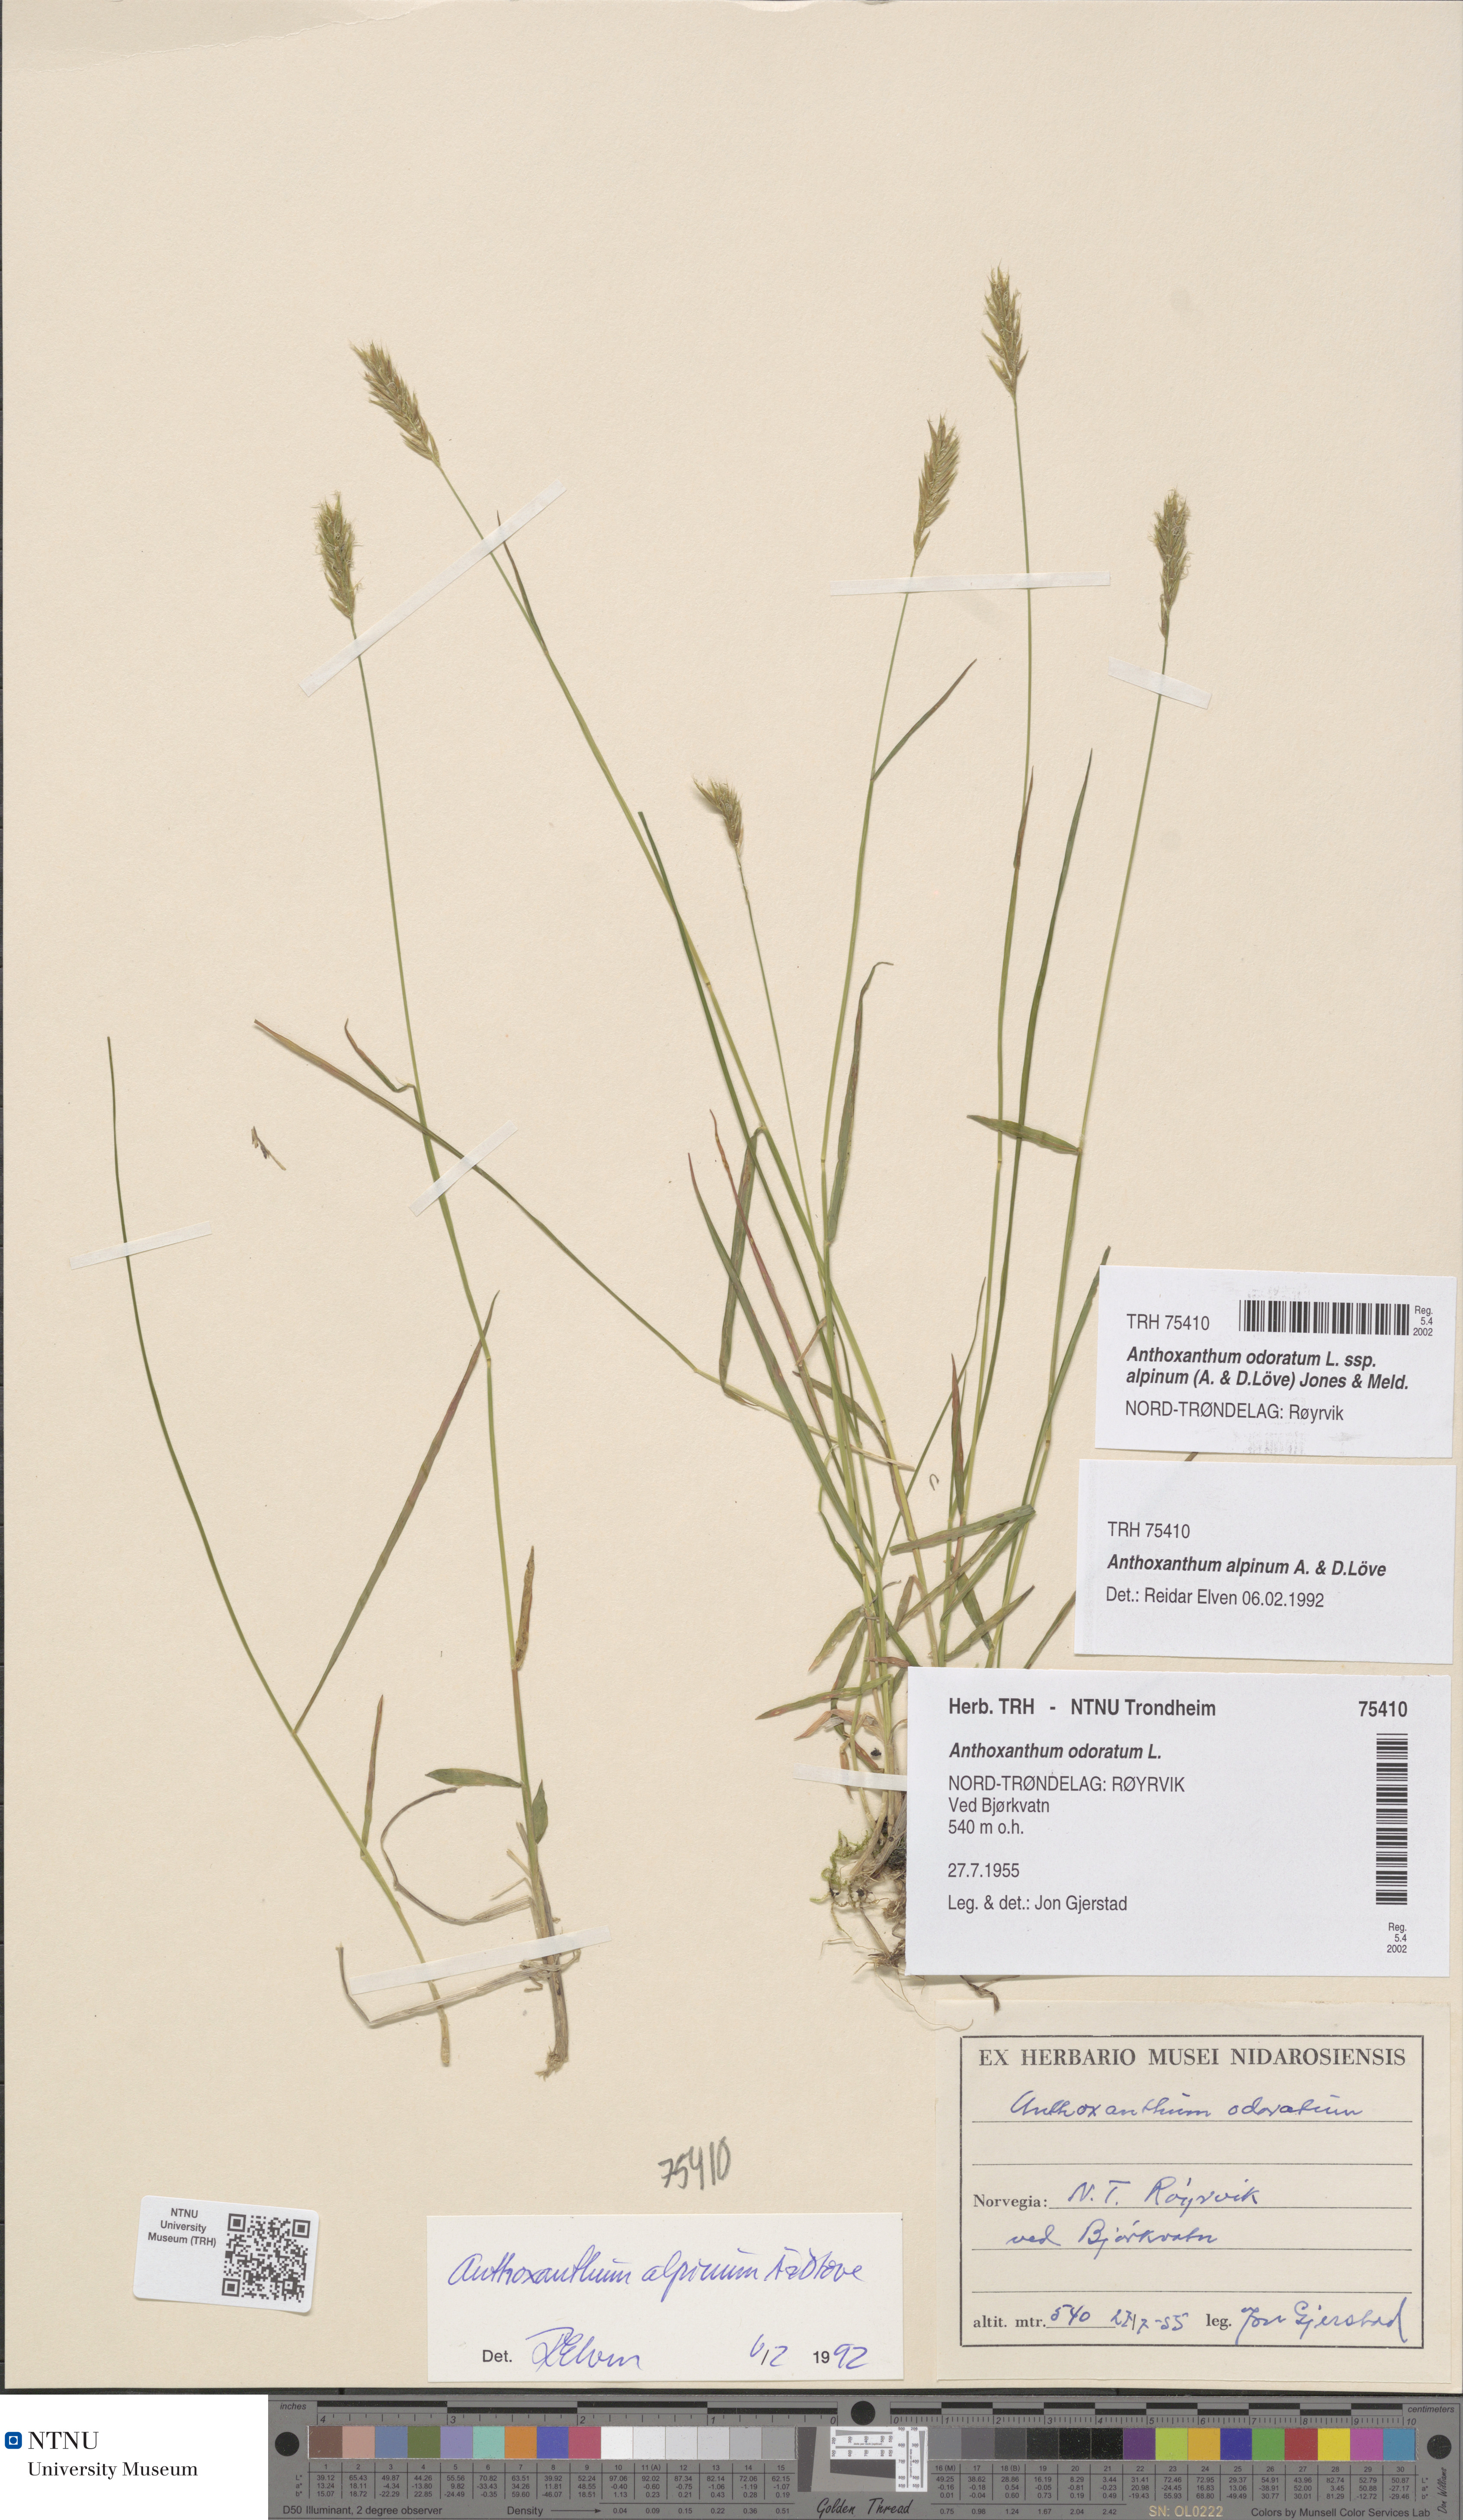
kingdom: Plantae
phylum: Tracheophyta
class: Liliopsida
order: Poales
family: Poaceae
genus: Anthoxanthum
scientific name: Anthoxanthum nipponicum
